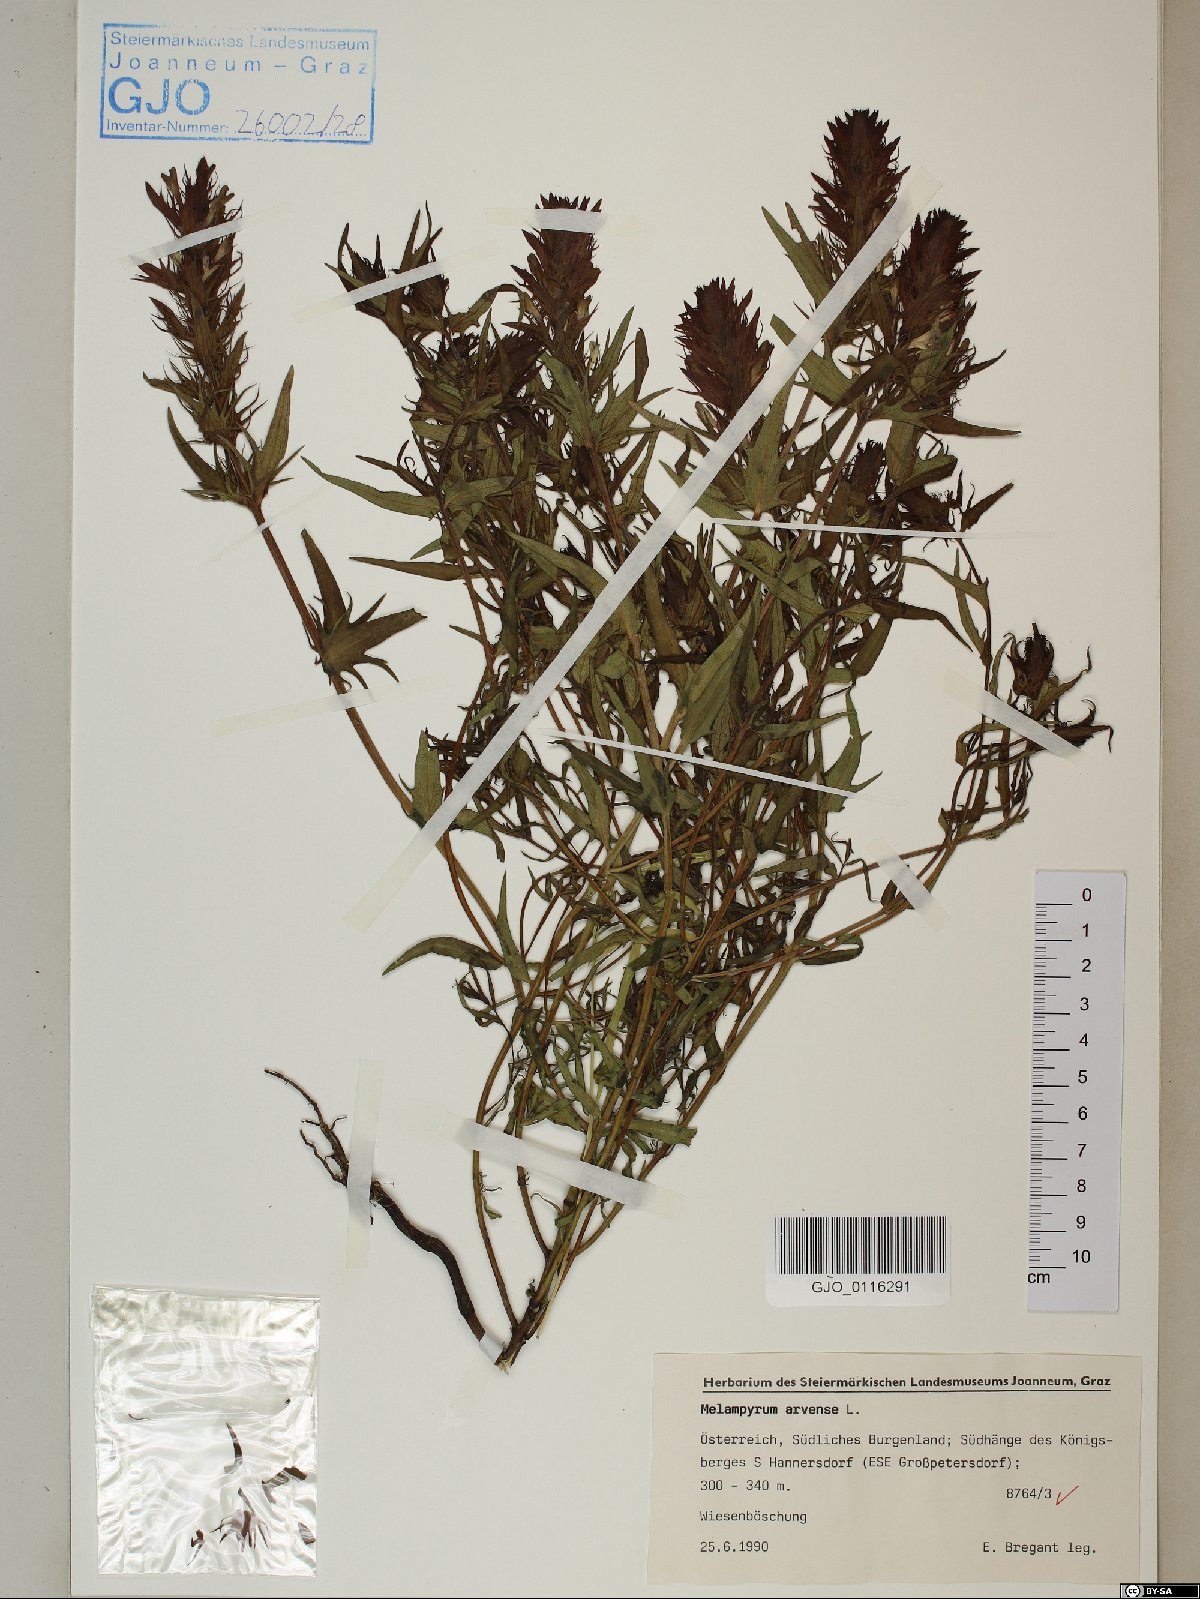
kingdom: Plantae
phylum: Tracheophyta
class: Magnoliopsida
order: Lamiales
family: Orobanchaceae
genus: Melampyrum
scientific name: Melampyrum arvense
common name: Field cow-wheat
